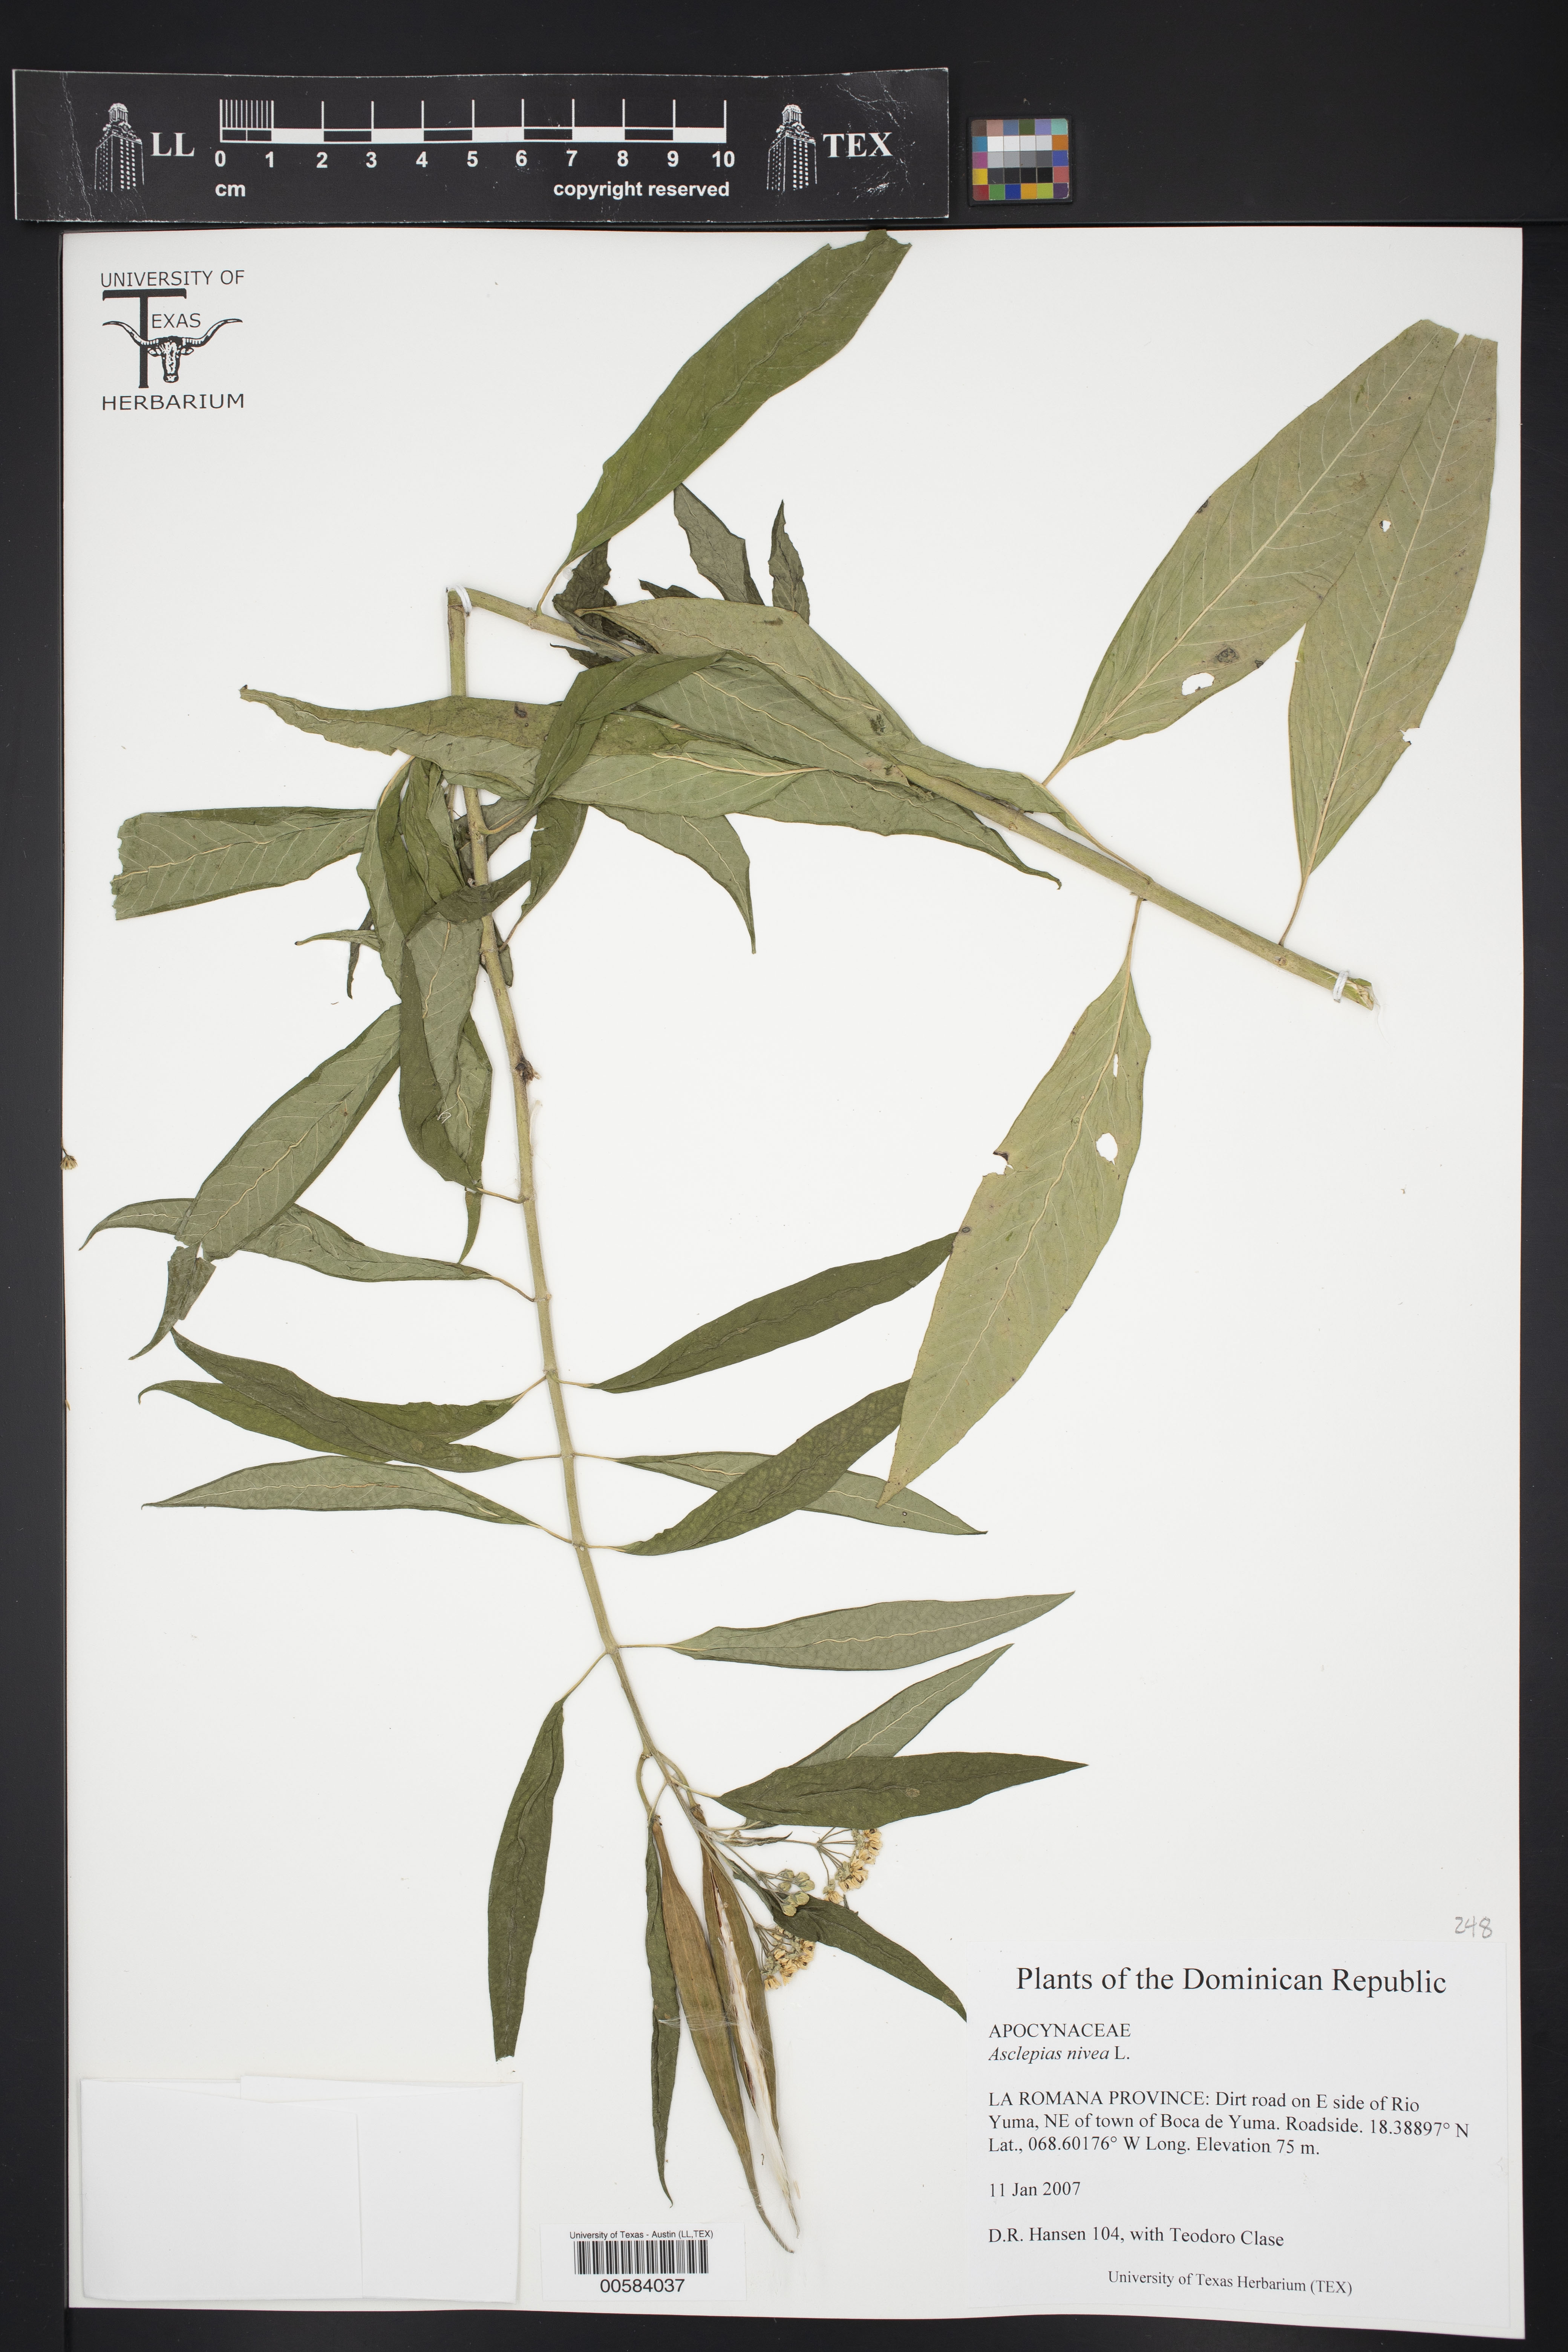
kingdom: Plantae
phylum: Tracheophyta
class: Magnoliopsida
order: Gentianales
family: Apocynaceae
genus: Asclepias
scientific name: Asclepias nivea
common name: Ipecacuanha
